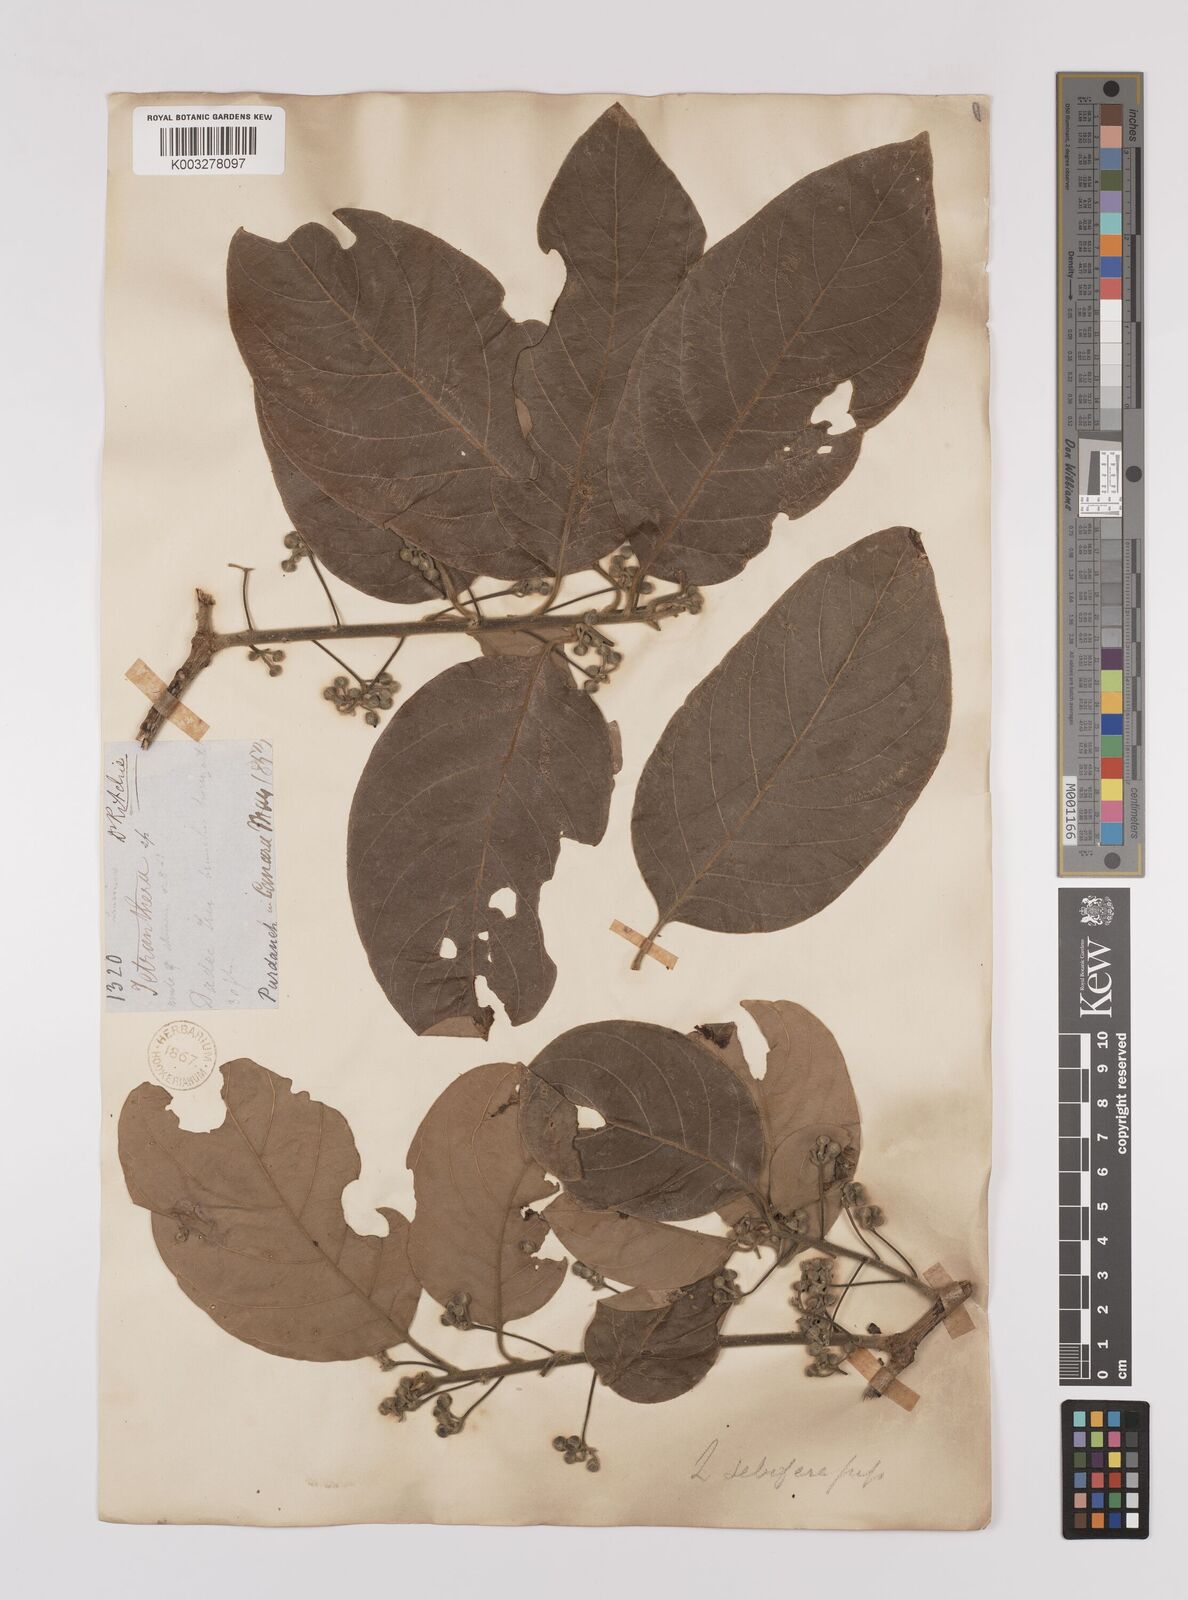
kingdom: Plantae
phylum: Tracheophyta
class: Magnoliopsida
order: Laurales
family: Lauraceae
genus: Litsea
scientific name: Litsea
